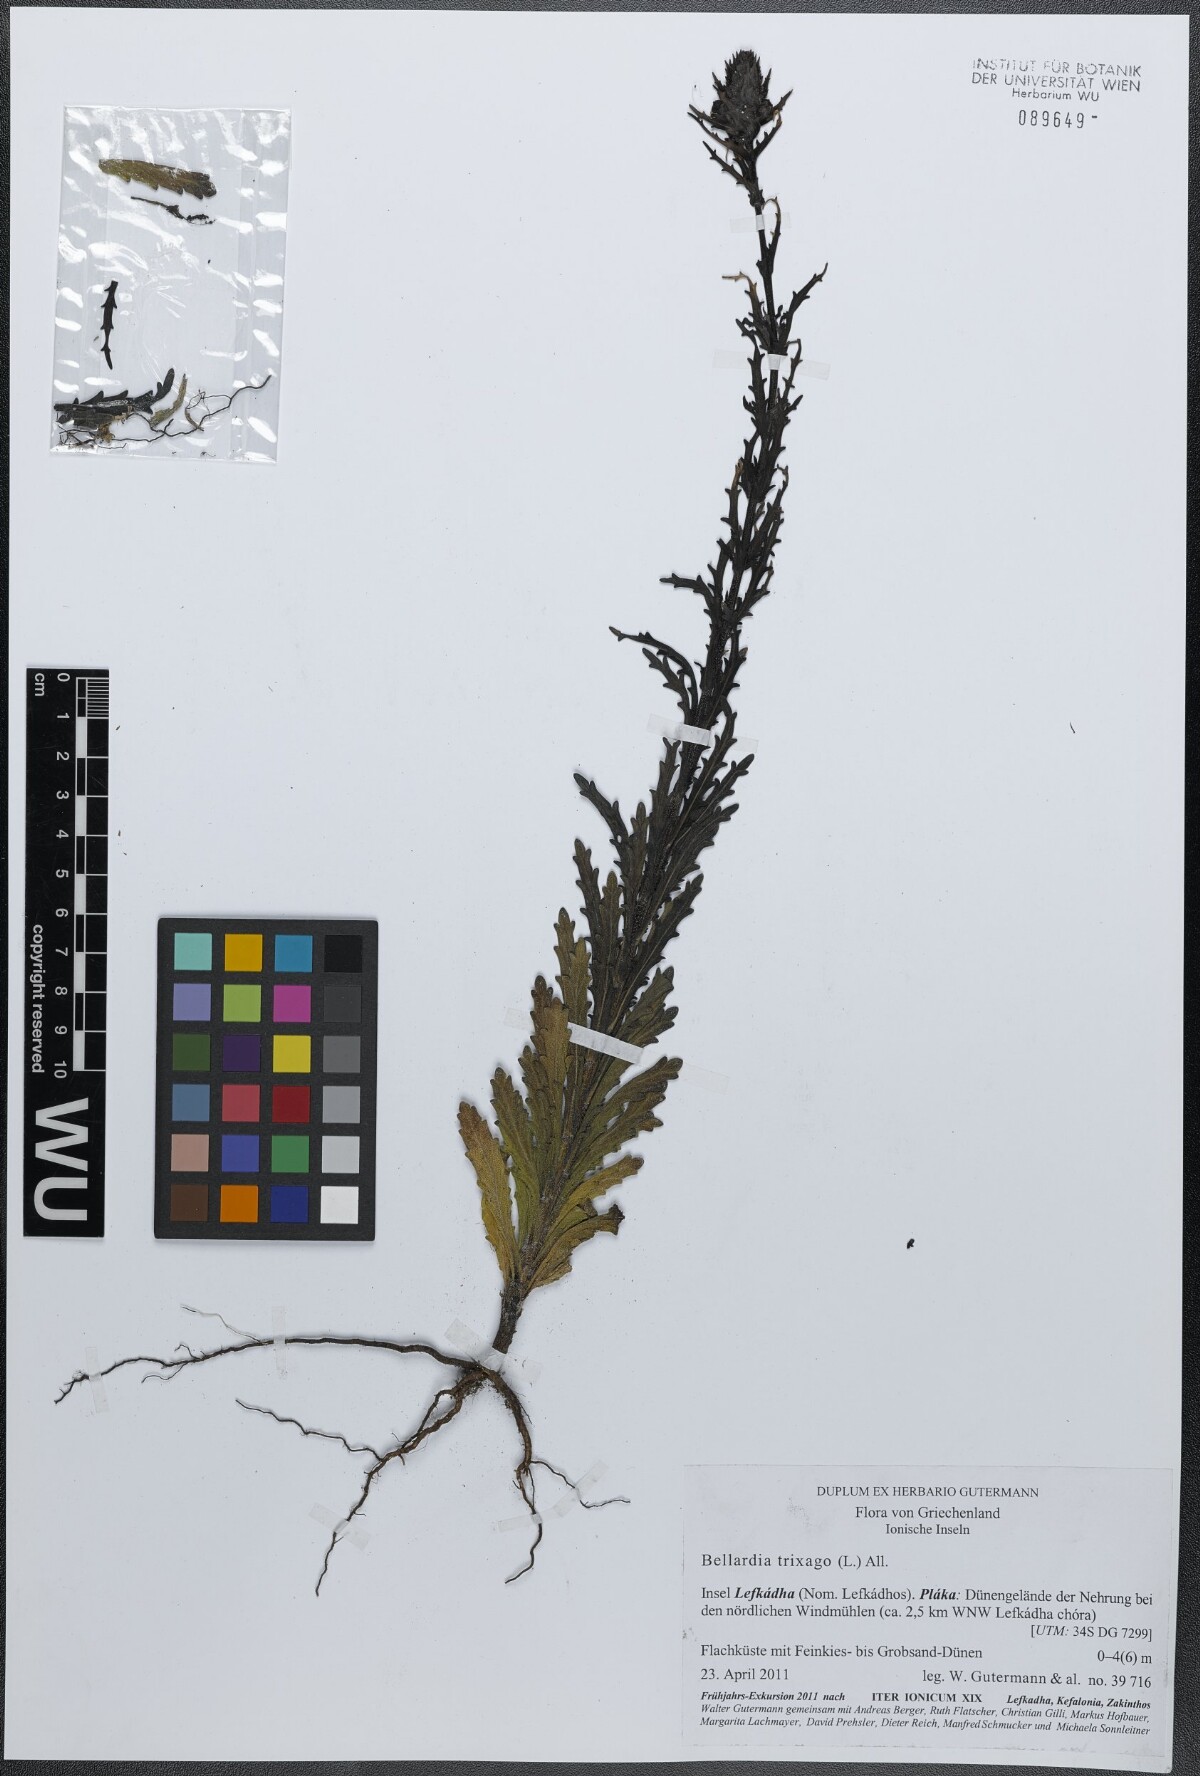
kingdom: Plantae
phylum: Tracheophyta
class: Magnoliopsida
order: Lamiales
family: Orobanchaceae
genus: Bellardia
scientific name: Bellardia trixago
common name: Mediterranean lineseed
